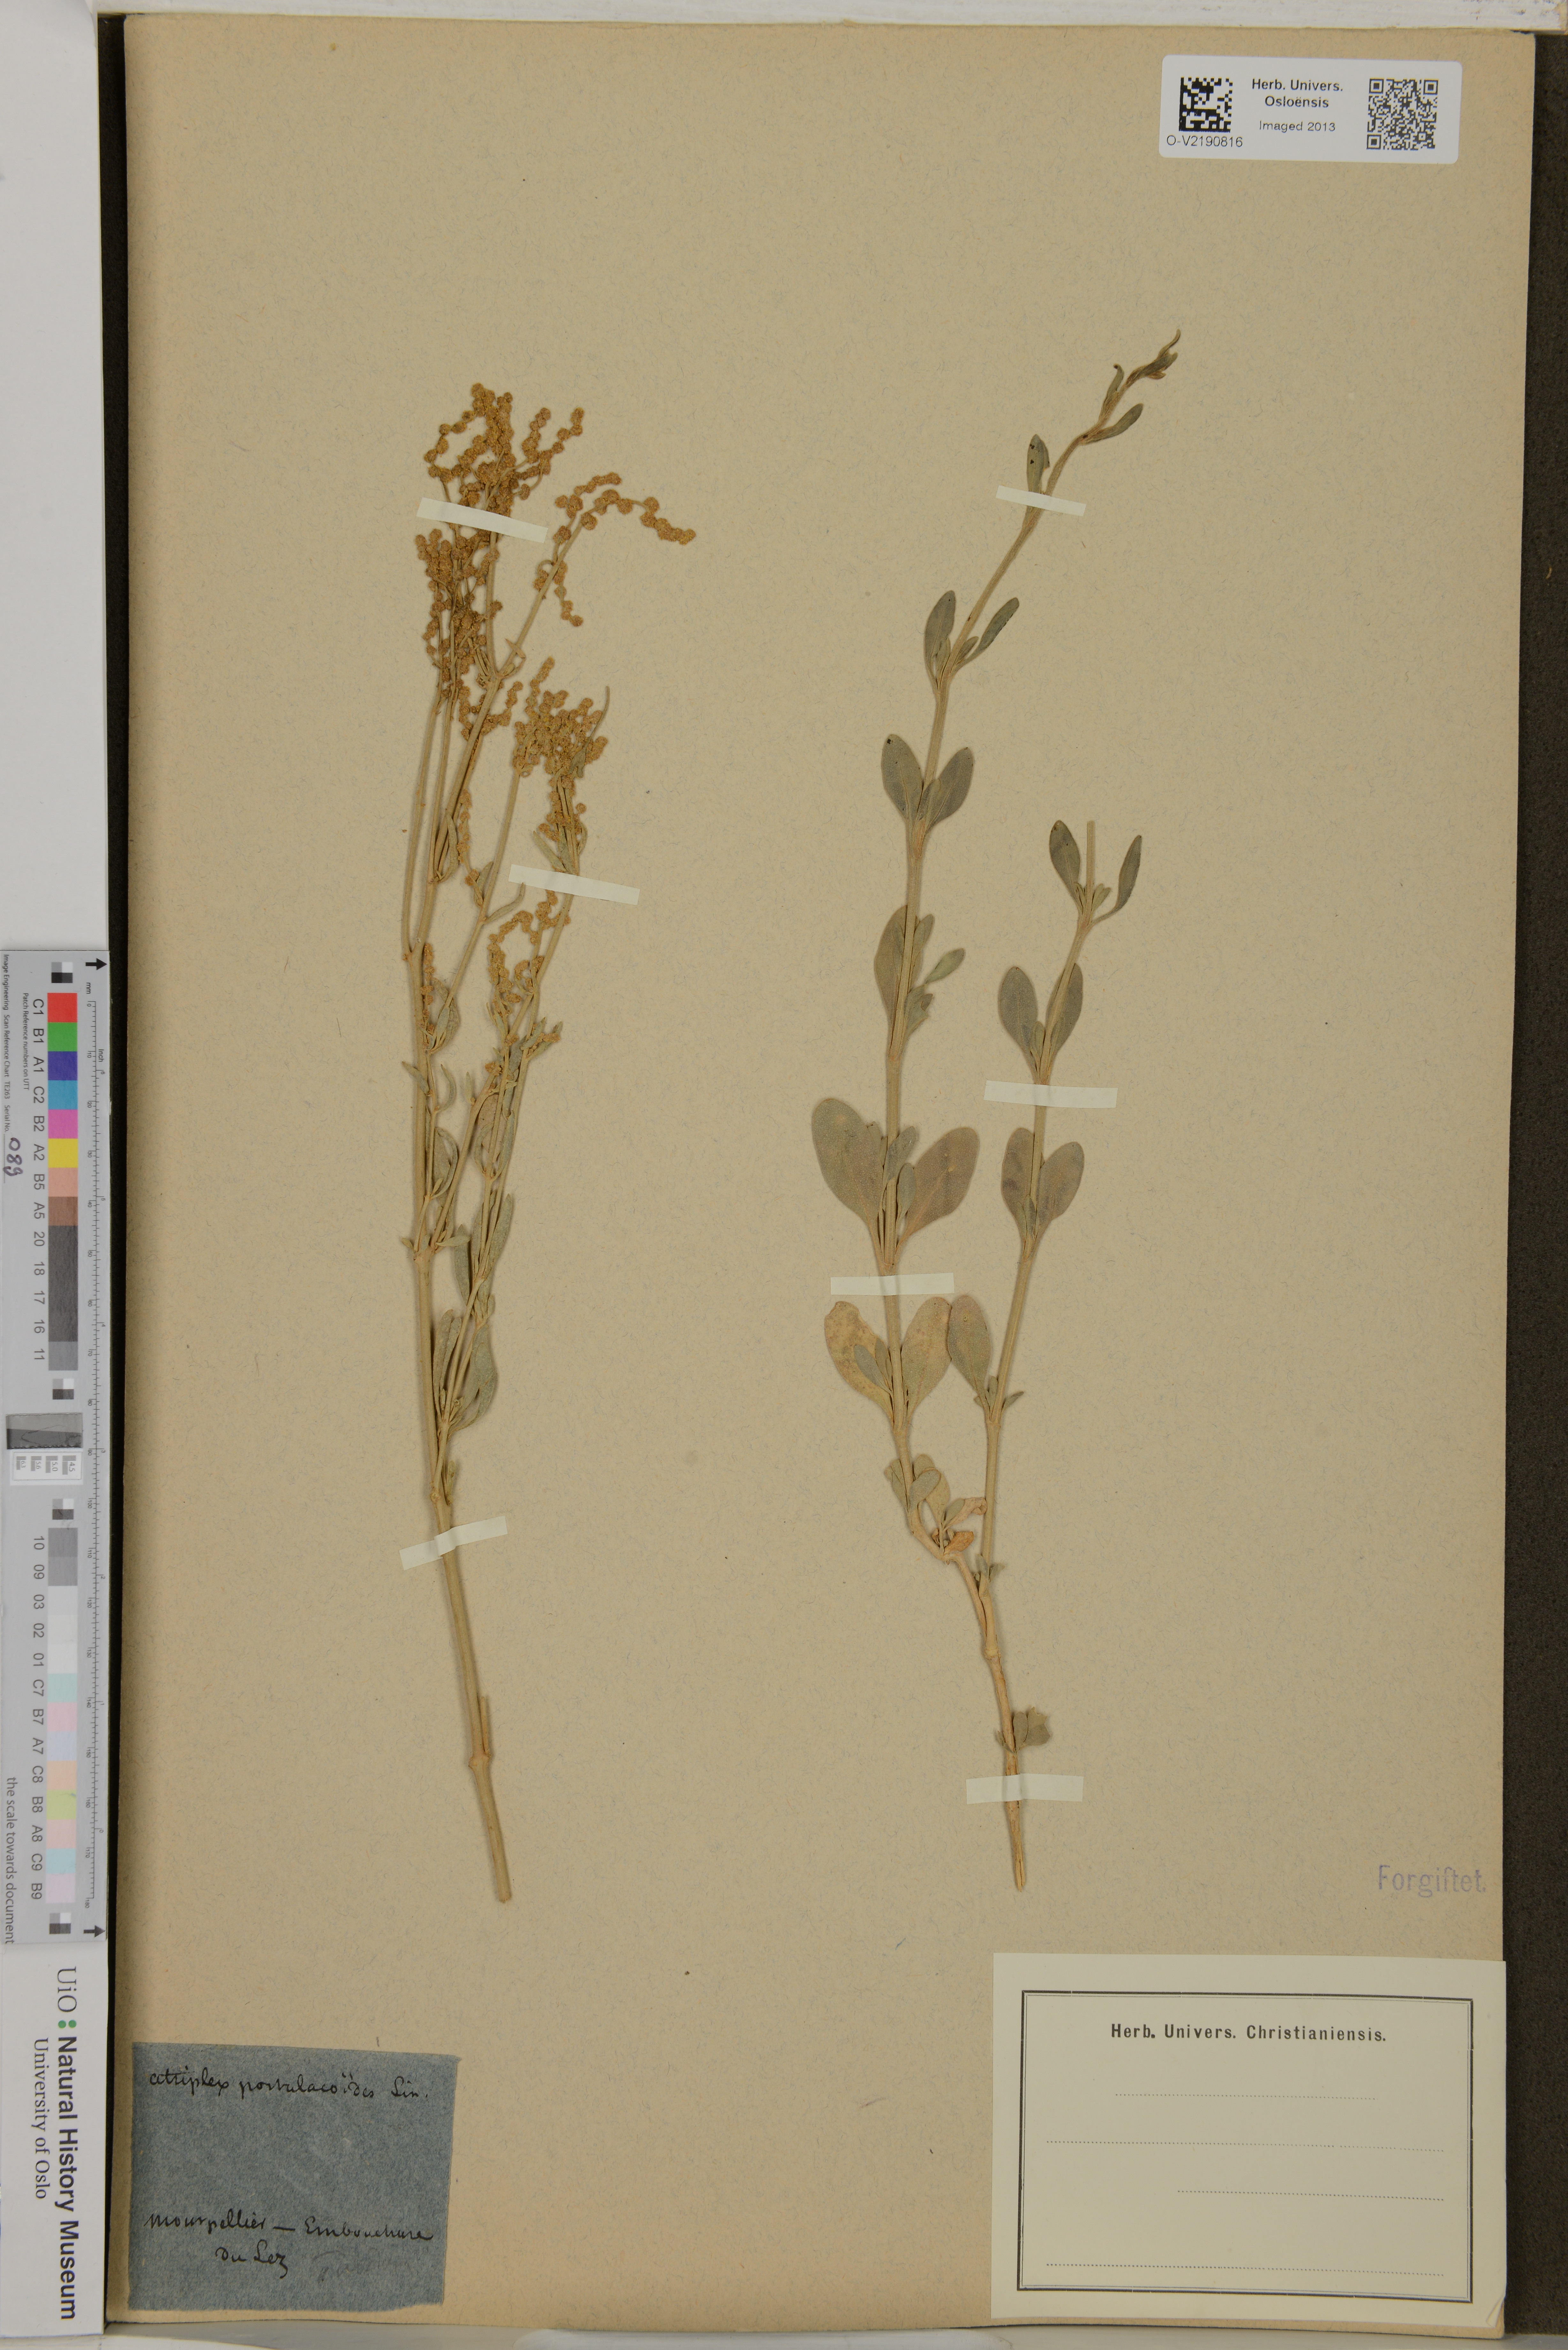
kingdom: Plantae
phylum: Tracheophyta
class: Magnoliopsida
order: Caryophyllales
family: Amaranthaceae
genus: Atriplex
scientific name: Atriplex vestita
